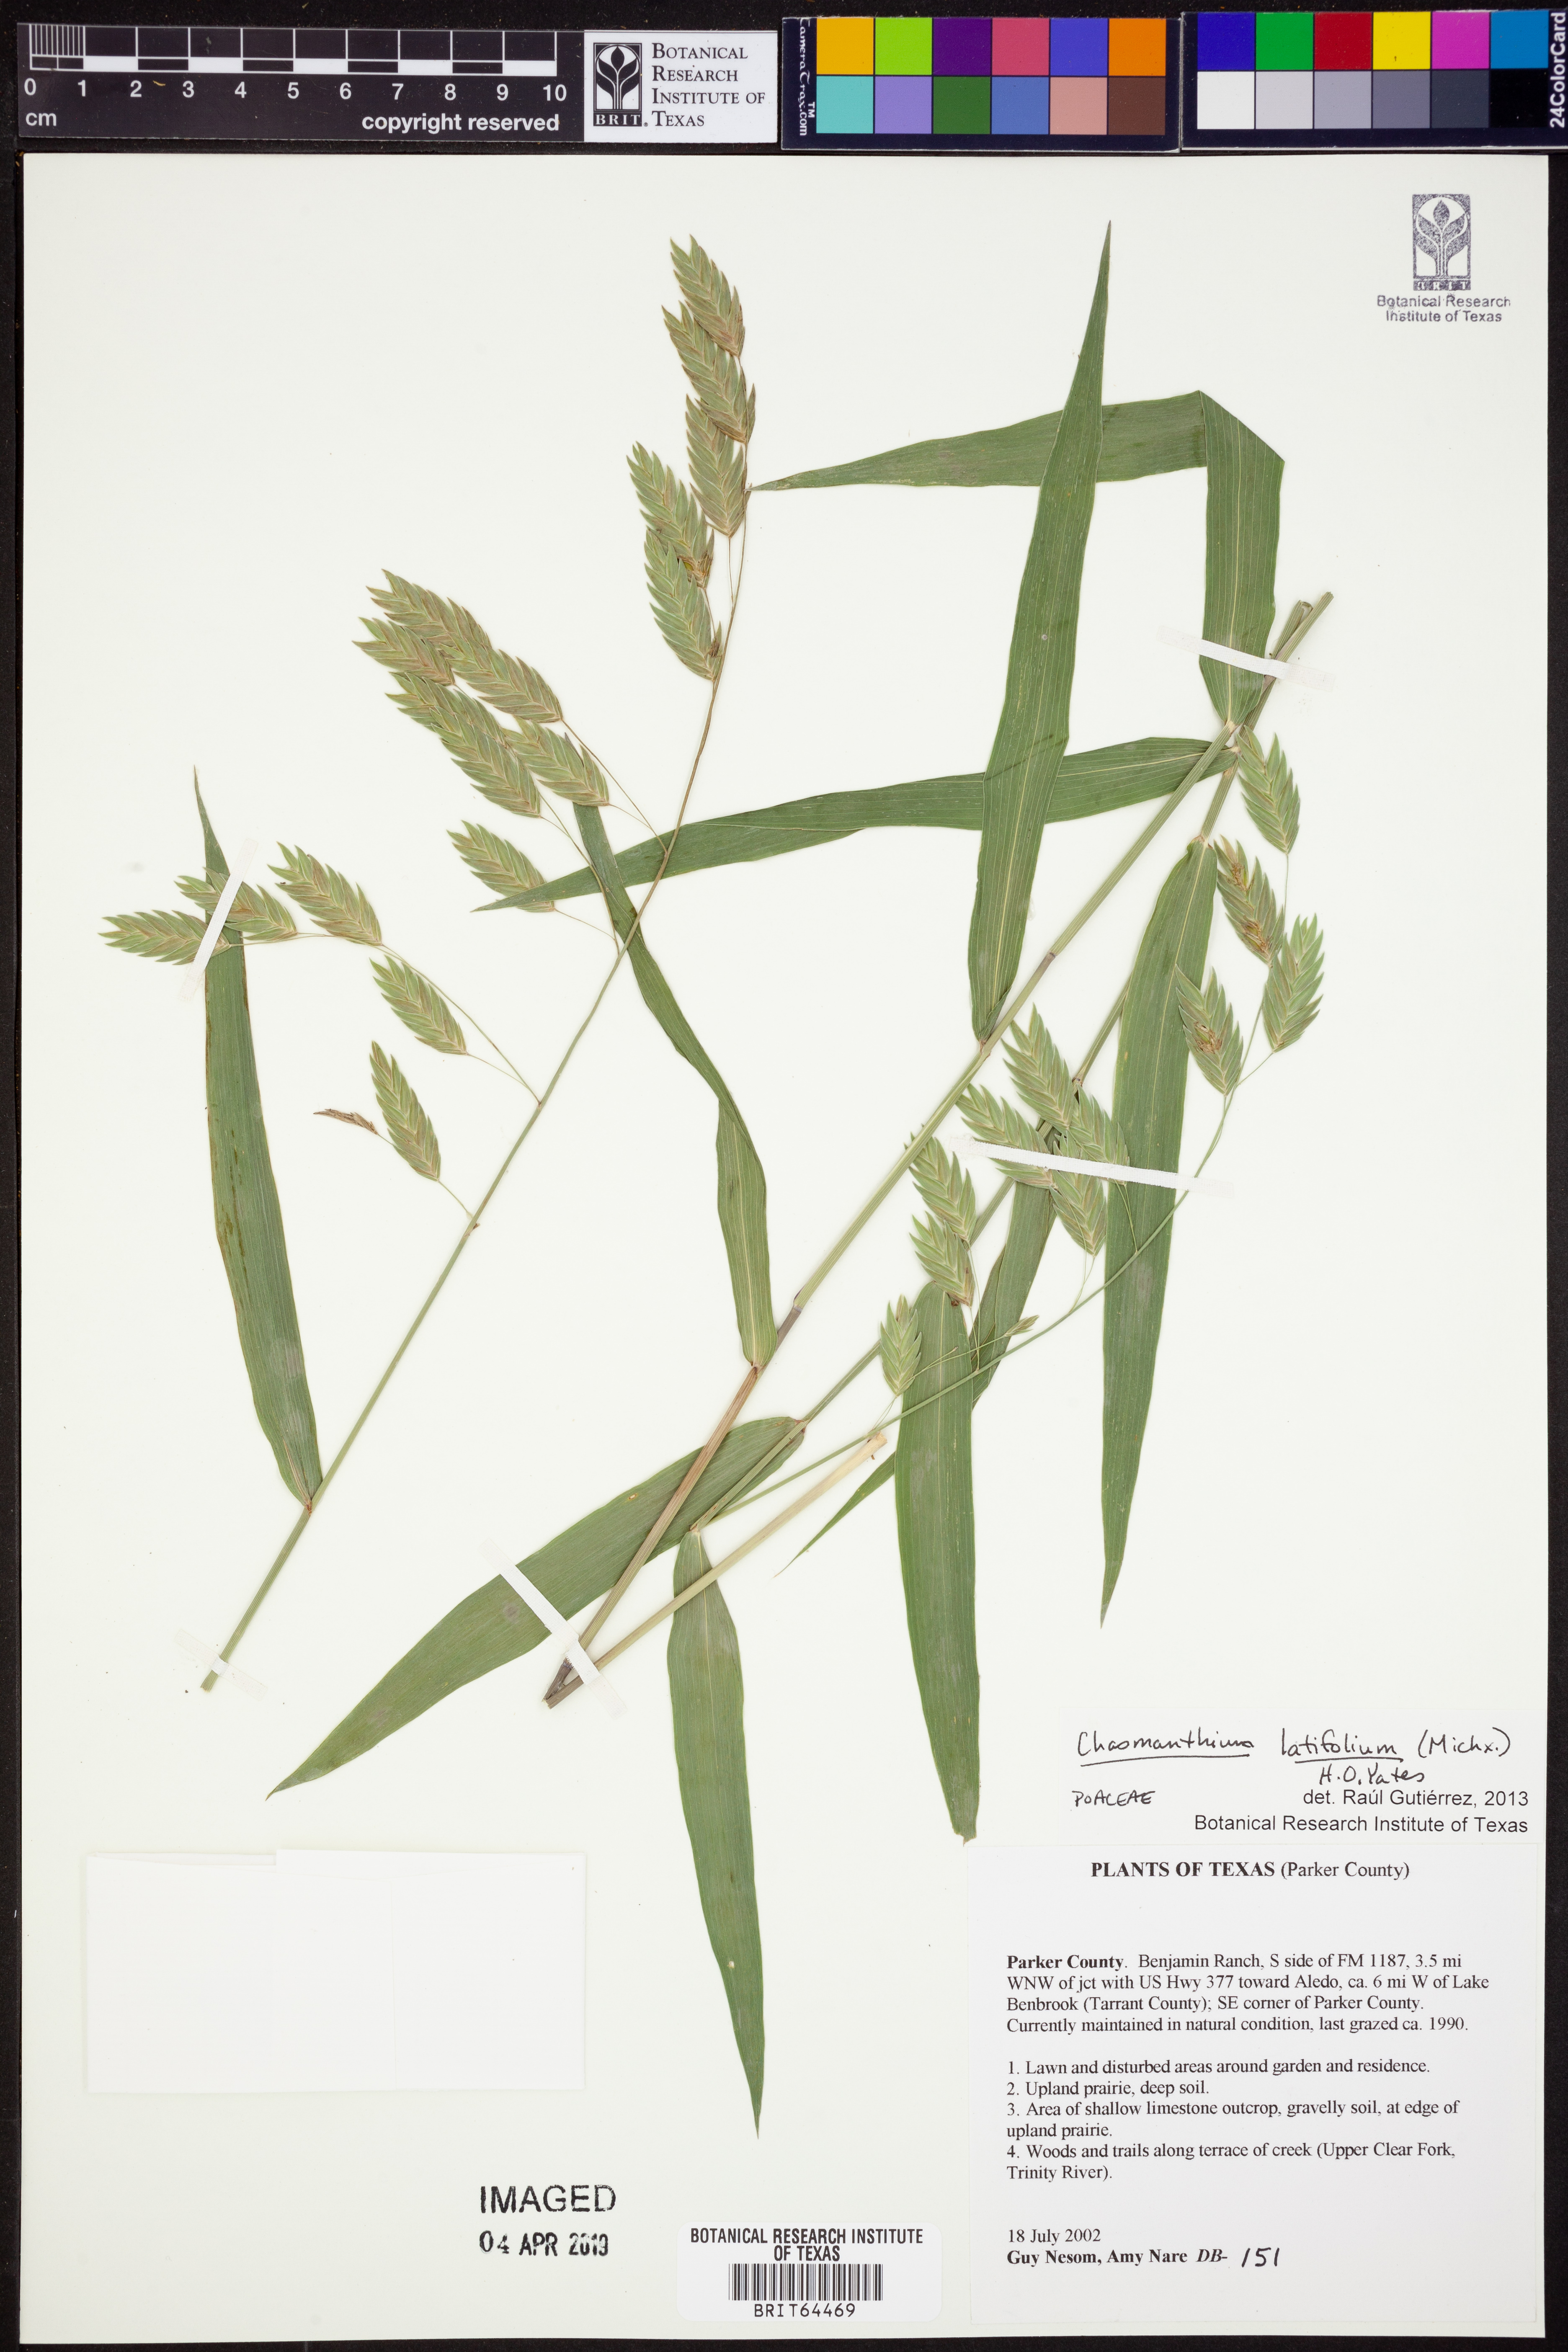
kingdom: Plantae
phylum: Tracheophyta
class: Liliopsida
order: Poales
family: Poaceae
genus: Chasmanthium
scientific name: Chasmanthium latifolium
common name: Broad-leaved chasmanthium
